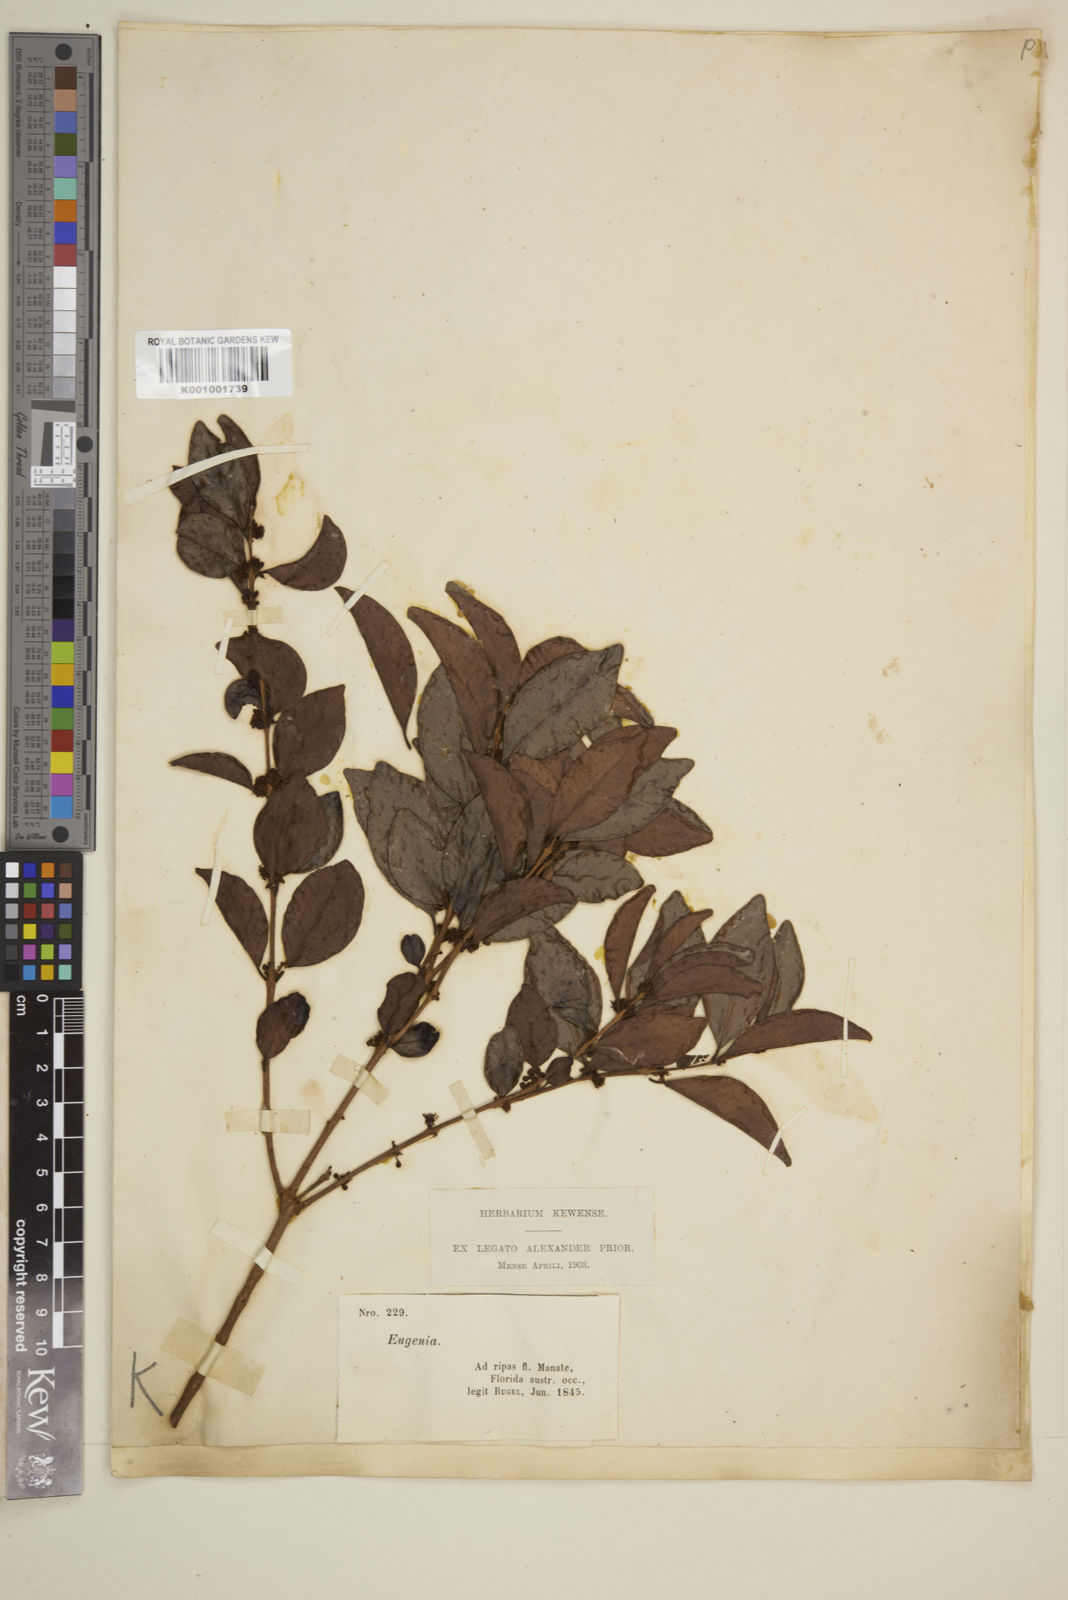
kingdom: Plantae
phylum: Tracheophyta
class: Magnoliopsida
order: Myrtales
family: Myrtaceae
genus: Eugenia
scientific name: Eugenia
